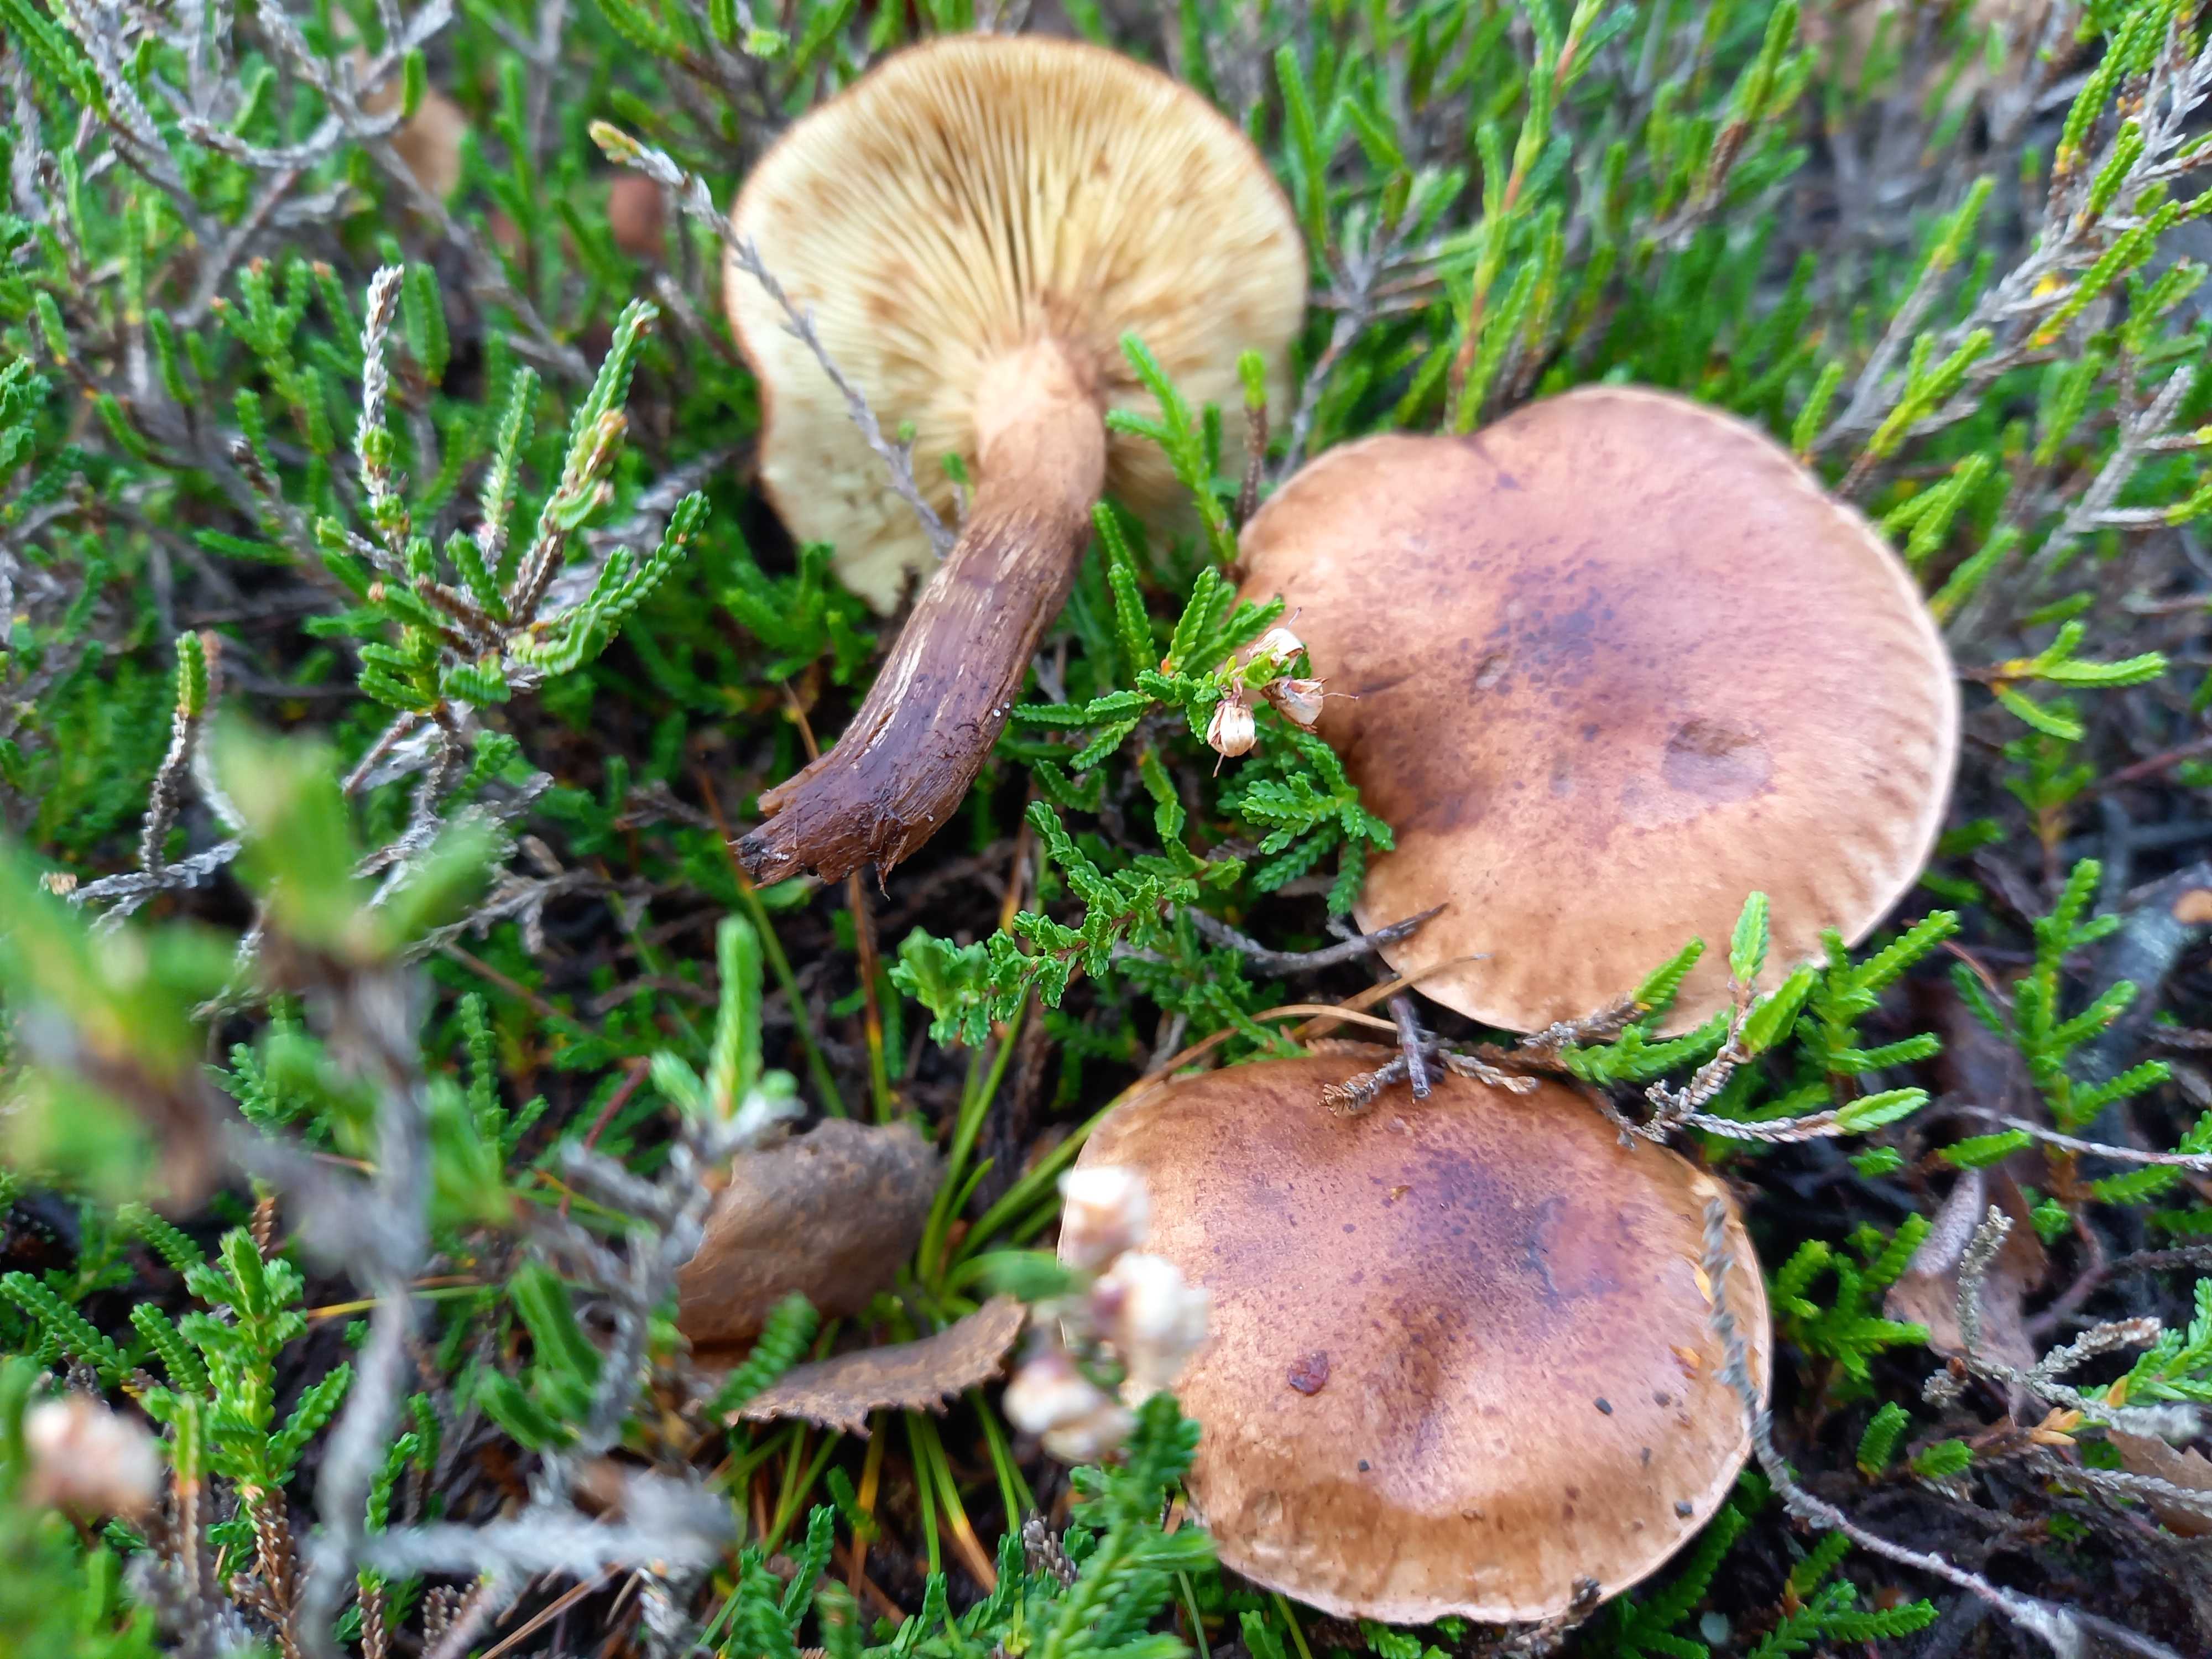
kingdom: Fungi
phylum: Basidiomycota
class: Agaricomycetes
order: Agaricales
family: Tricholomataceae
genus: Tricholoma
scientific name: Tricholoma fulvum
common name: birke-ridderhat
